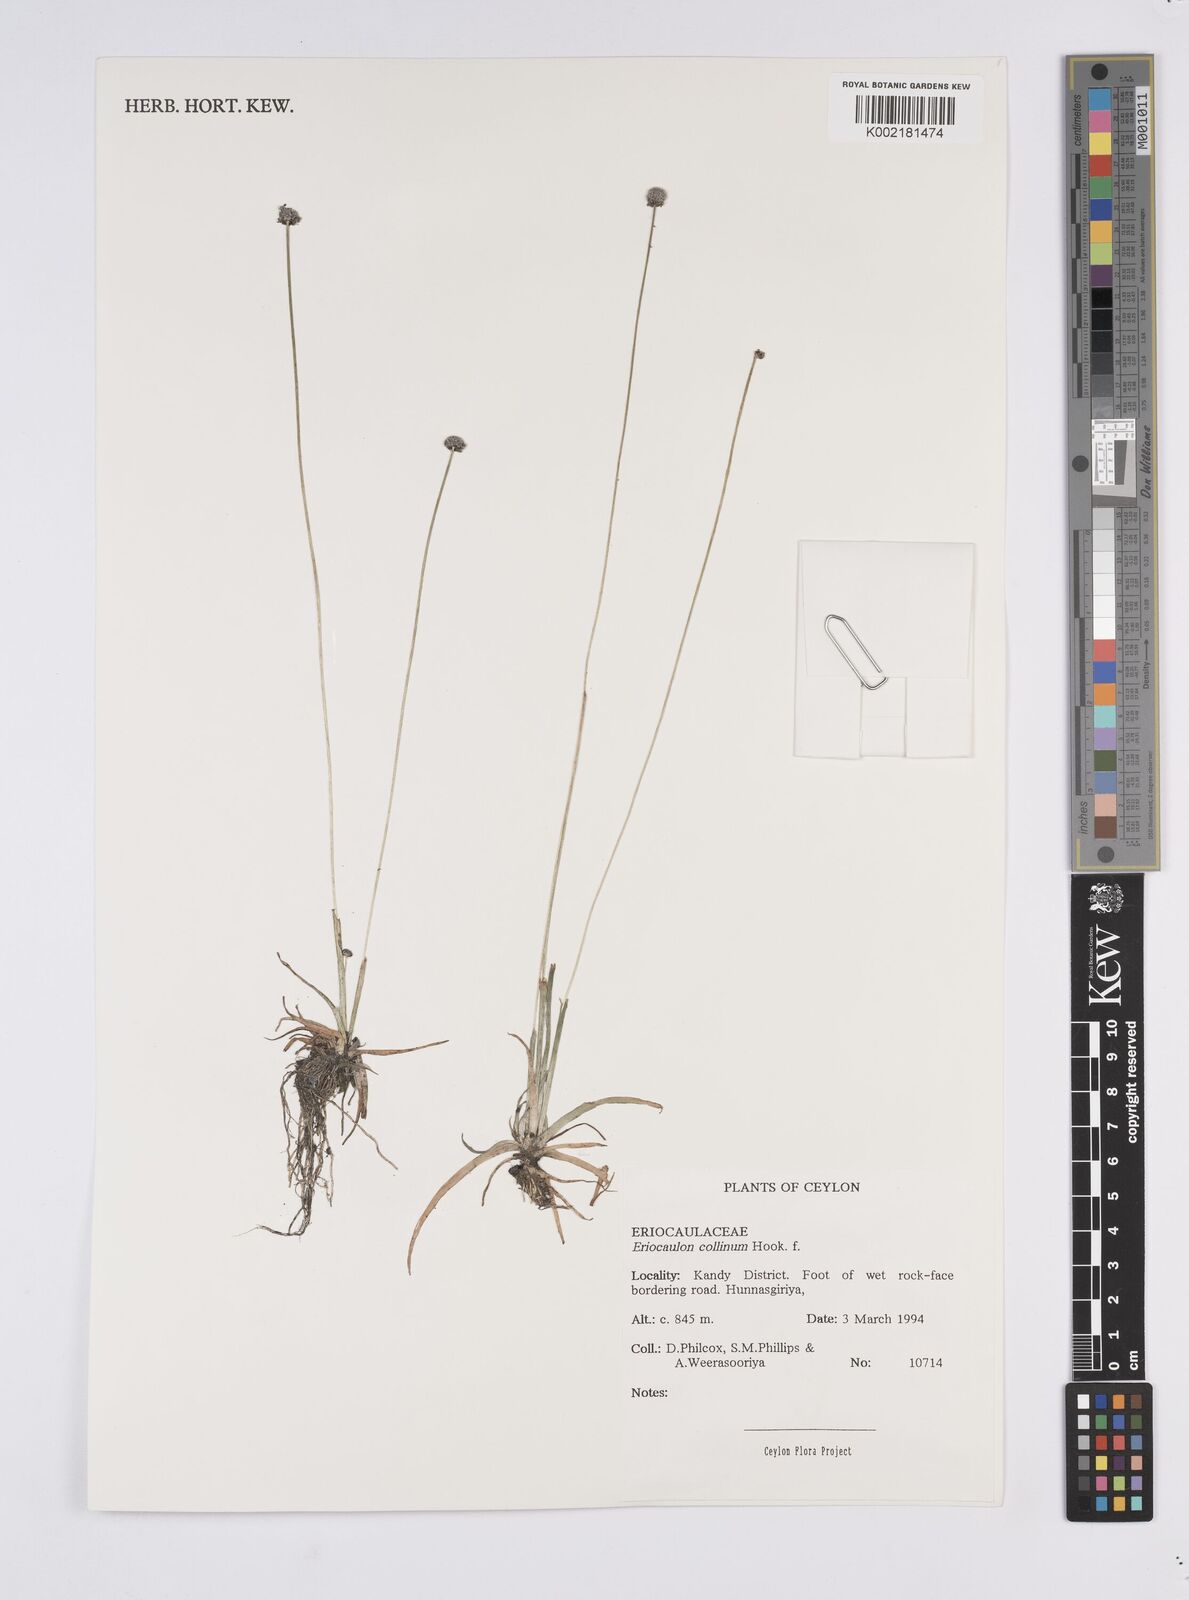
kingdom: Plantae
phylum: Tracheophyta
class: Liliopsida
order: Poales
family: Eriocaulaceae
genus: Eriocaulon
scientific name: Eriocaulon odoratum
